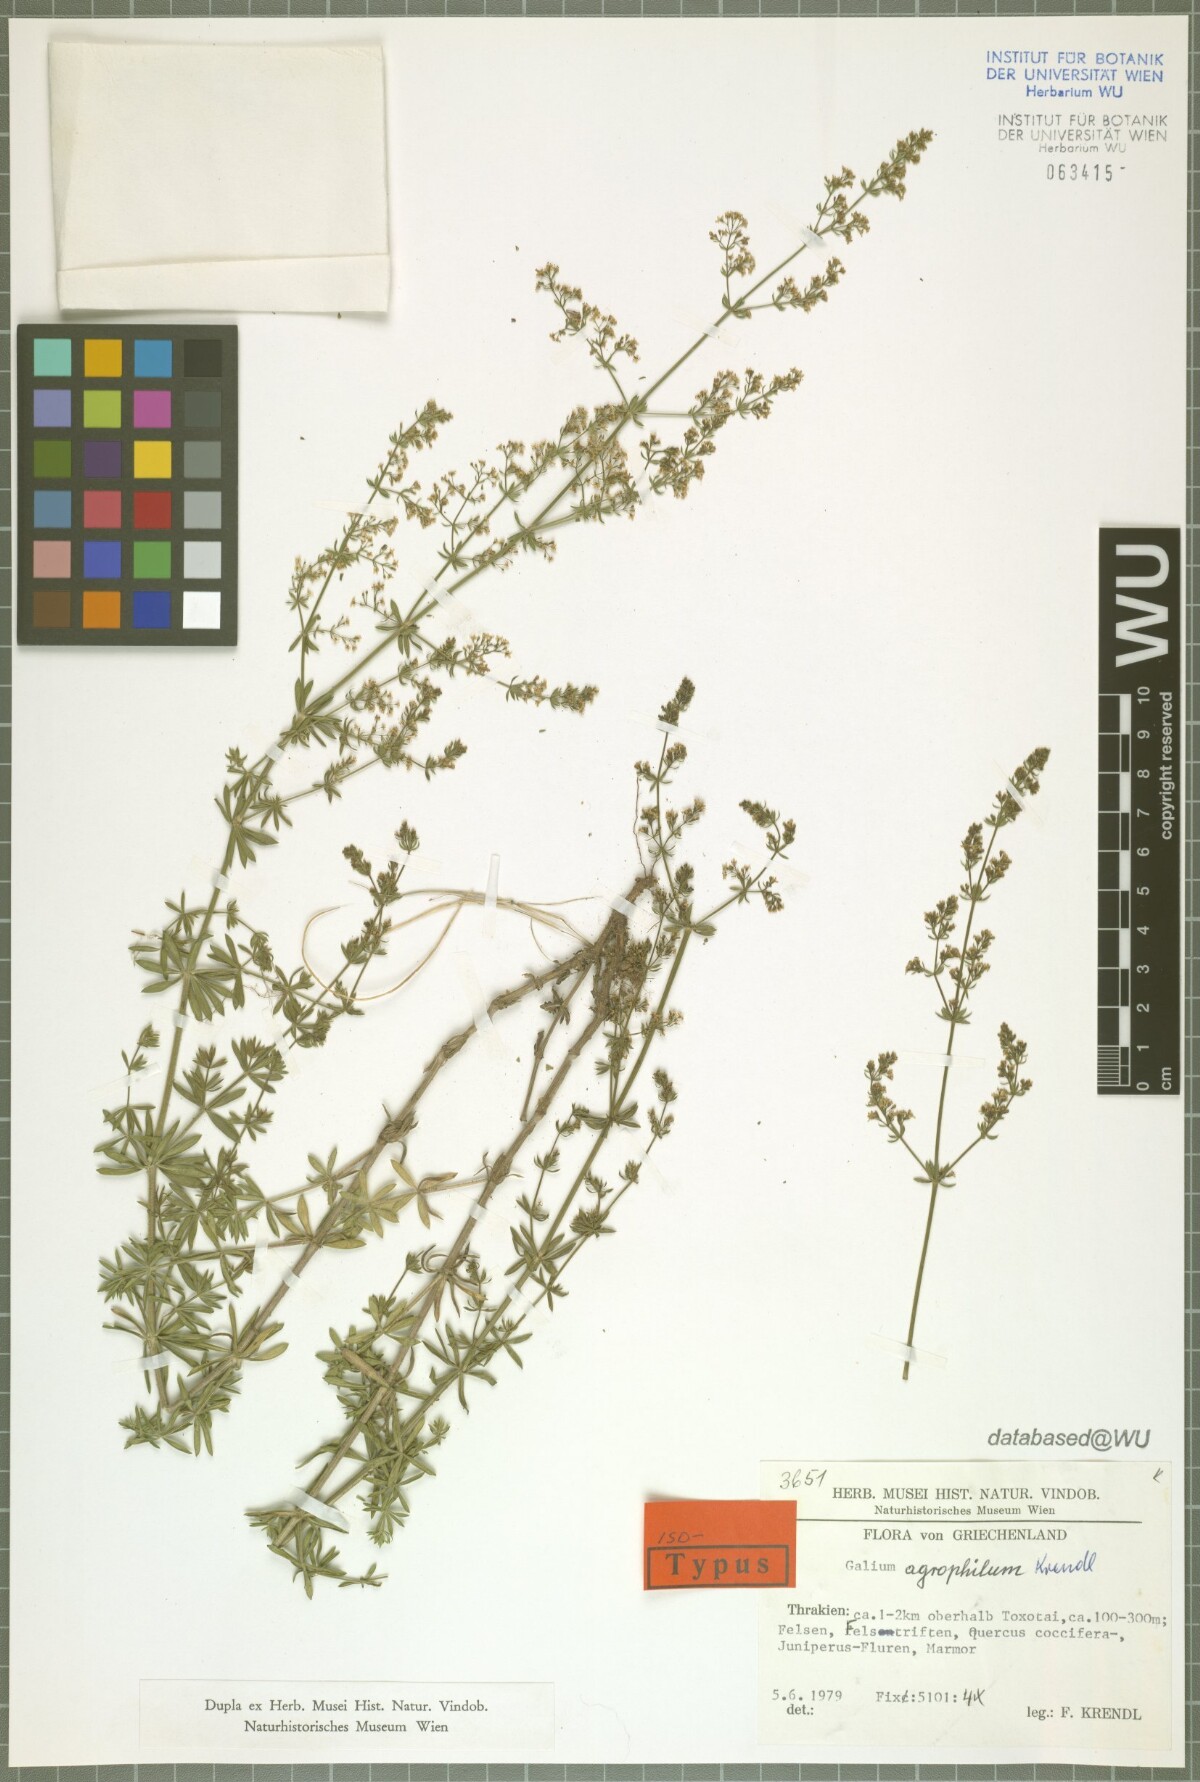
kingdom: Plantae
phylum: Tracheophyta
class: Magnoliopsida
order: Gentianales
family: Rubiaceae
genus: Galium
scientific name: Galium agrophilum
